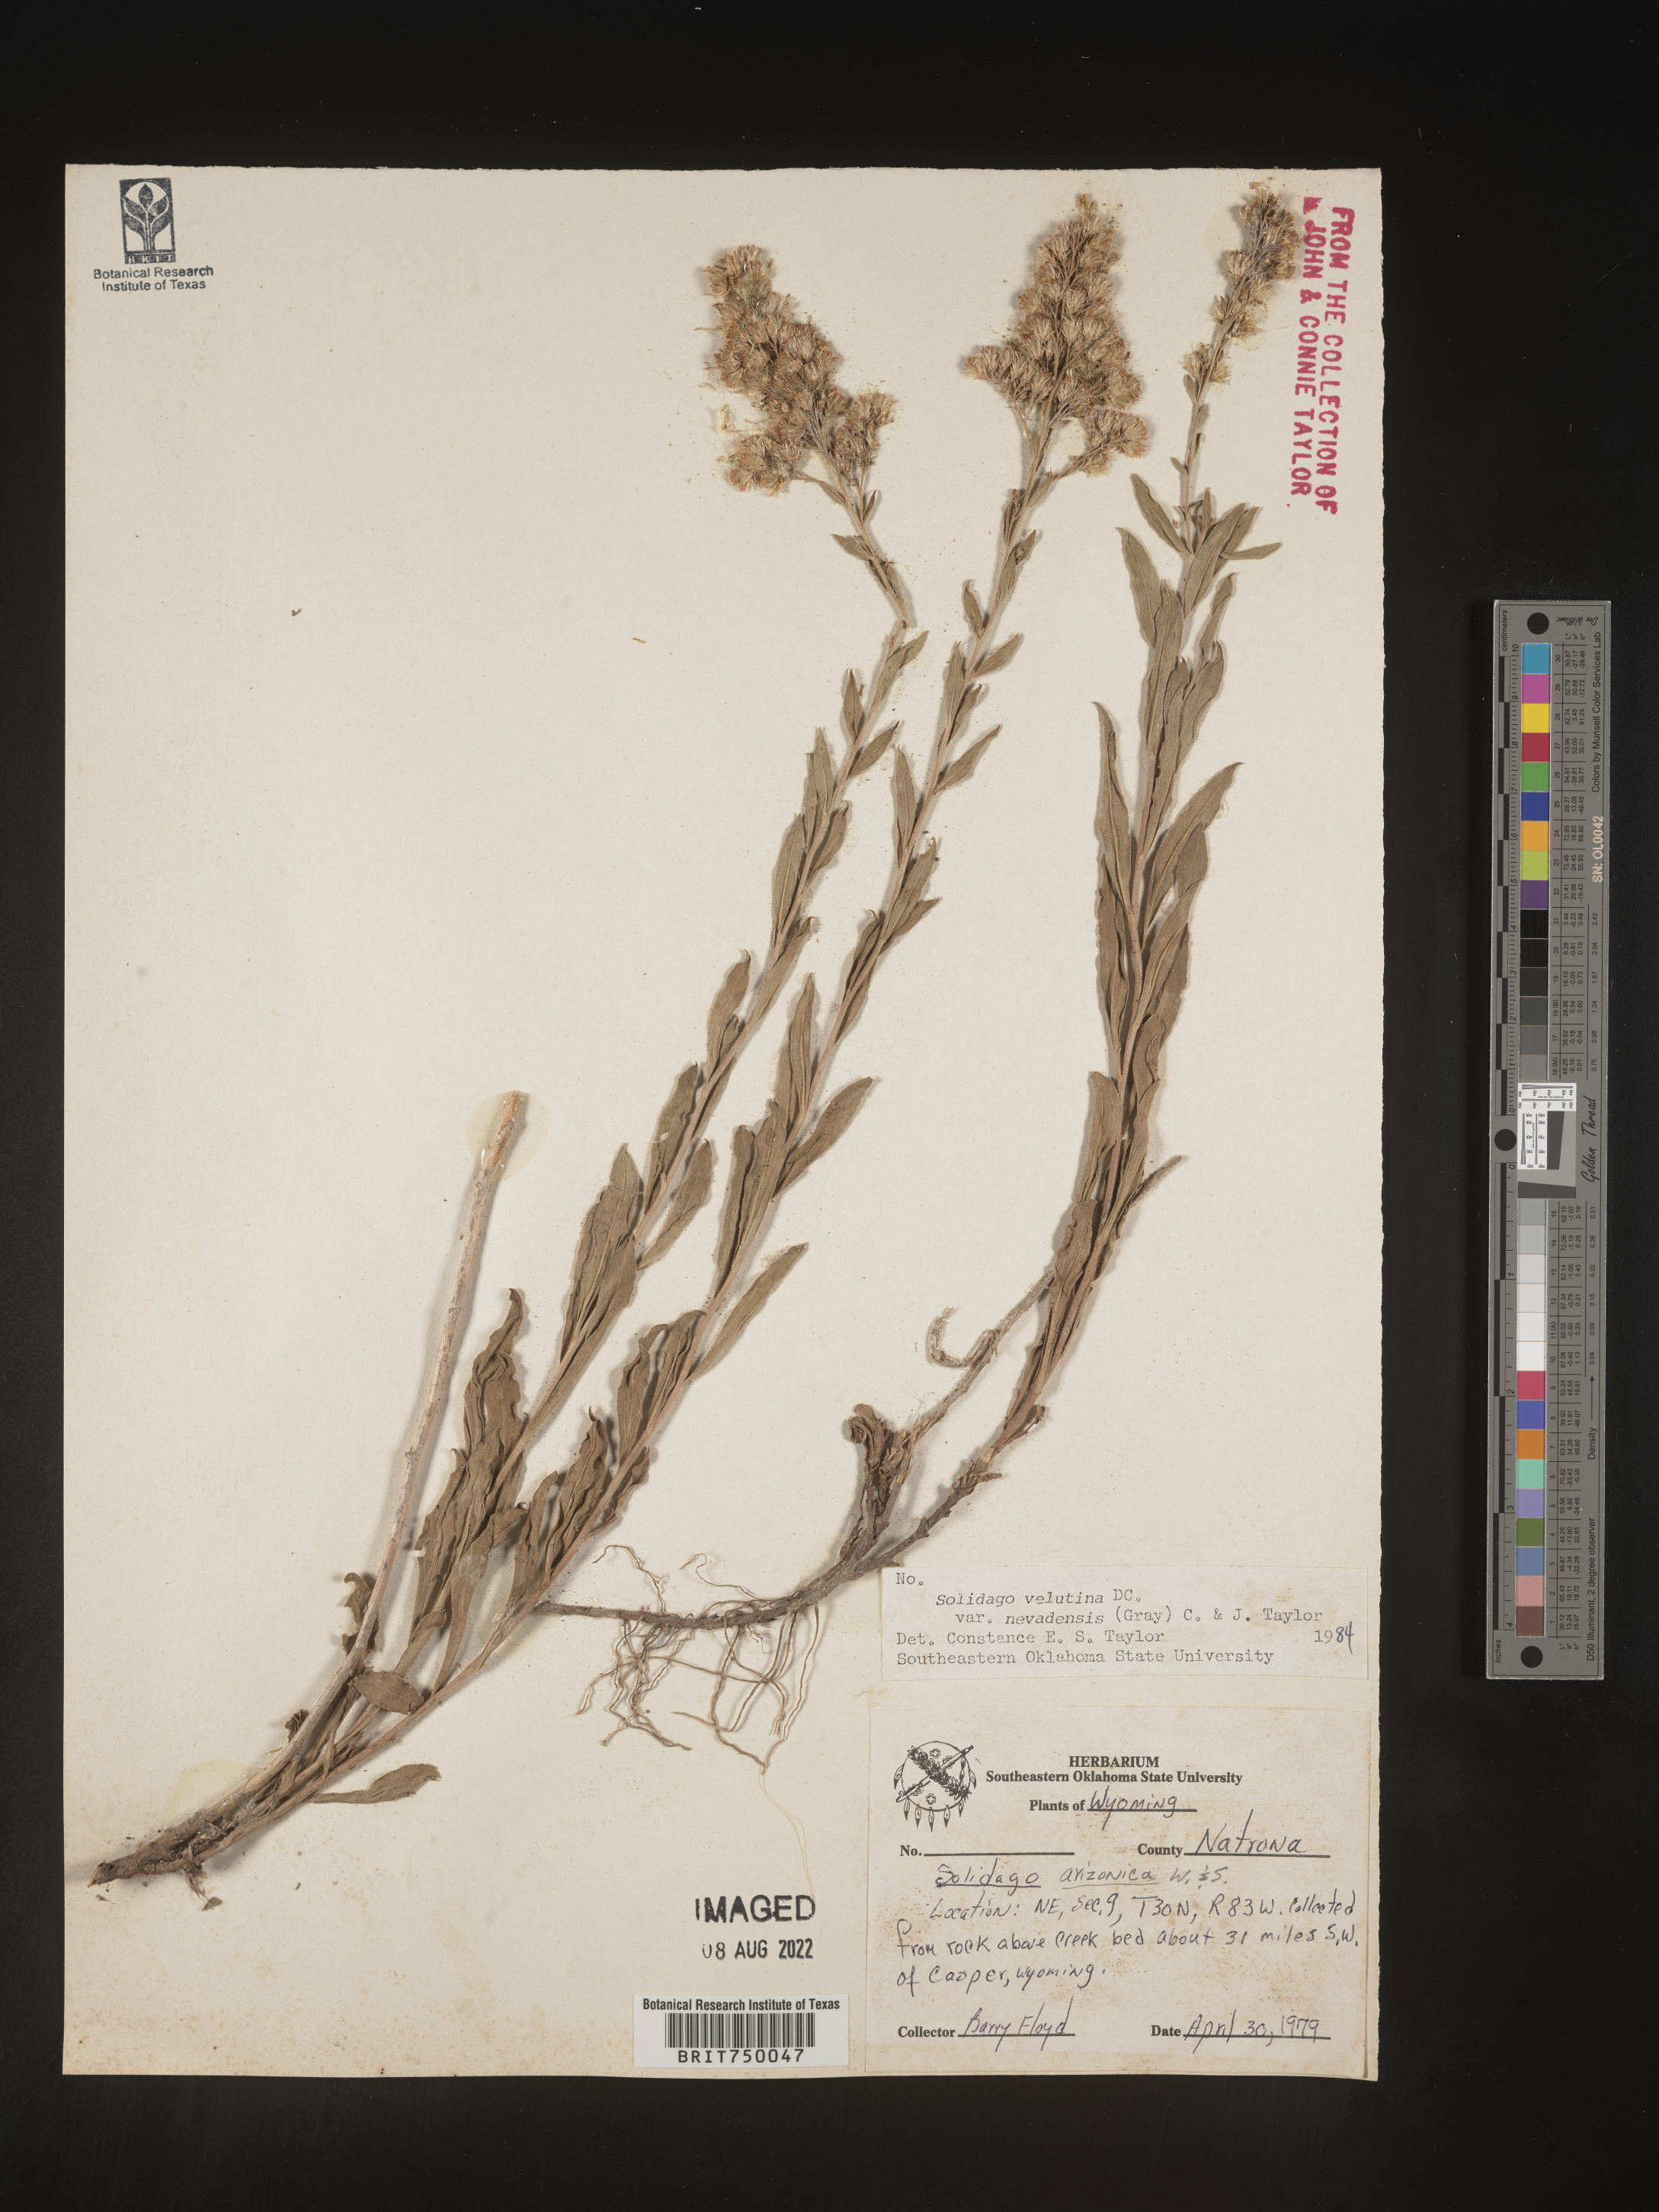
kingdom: Plantae
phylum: Tracheophyta
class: Magnoliopsida
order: Asterales
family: Asteraceae
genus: Solidago
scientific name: Solidago garrettii
